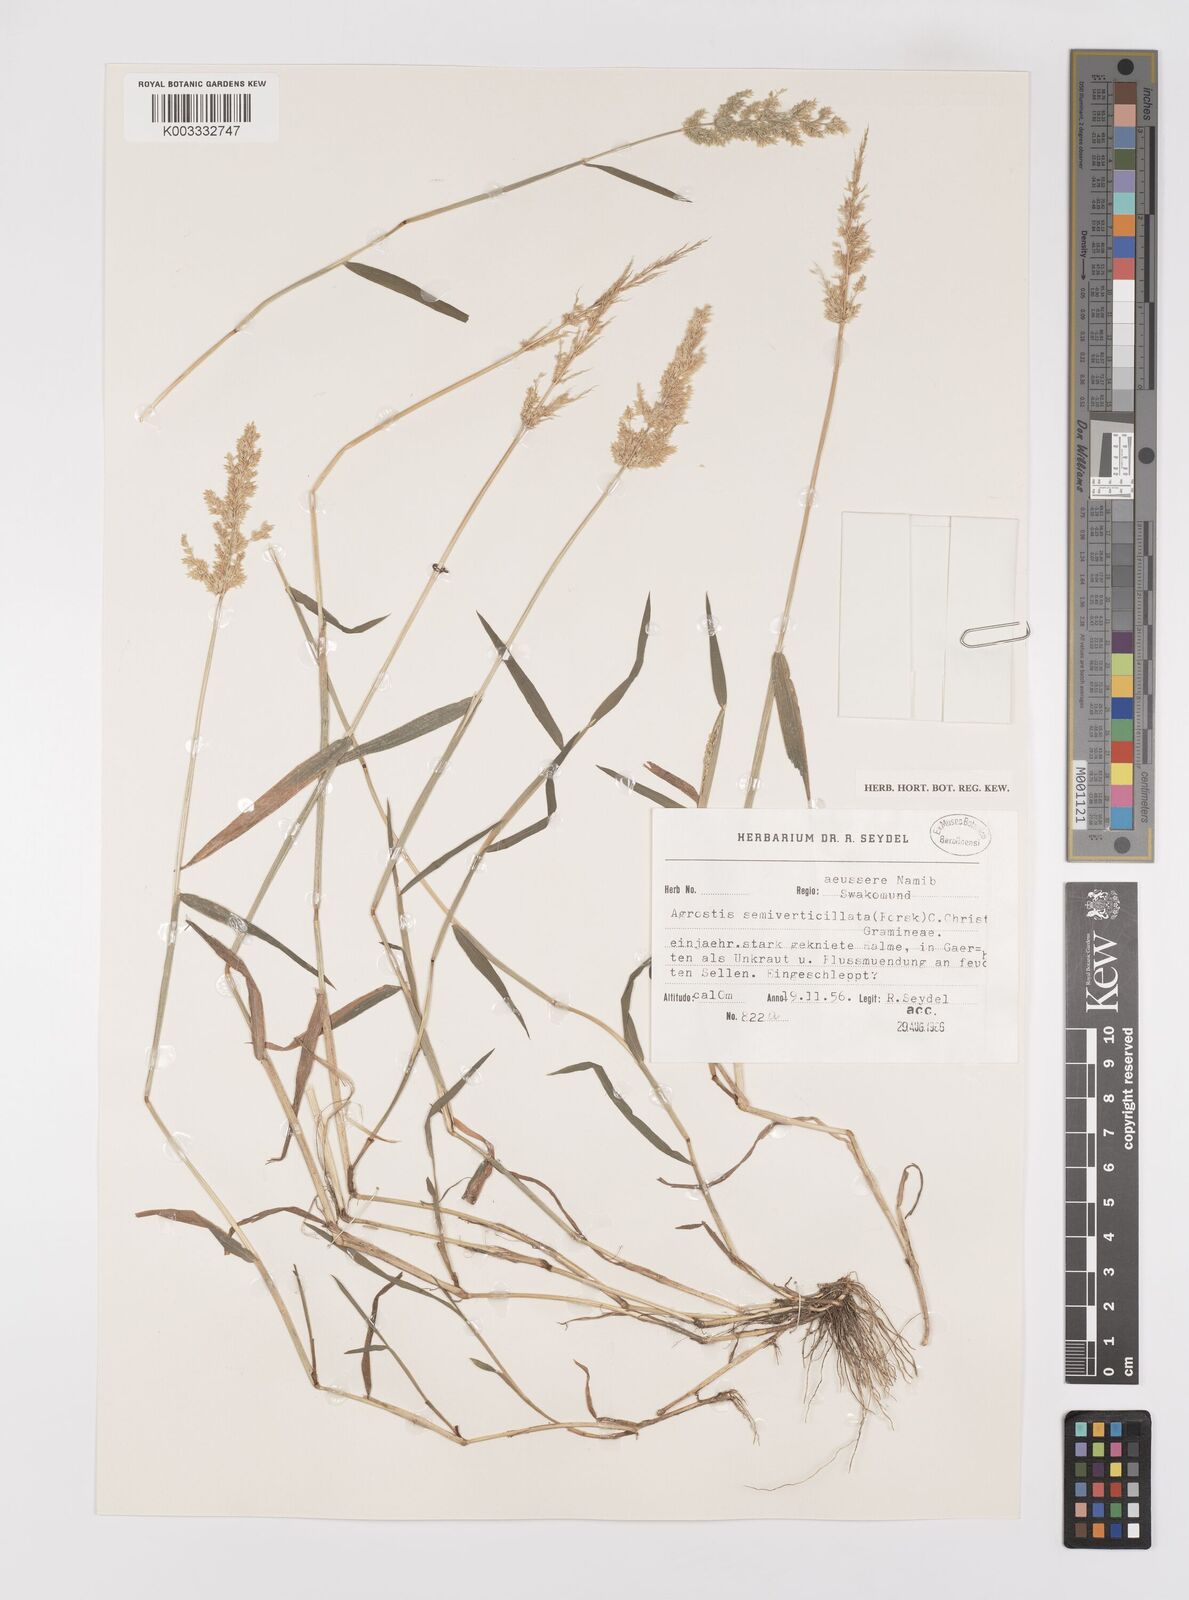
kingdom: Plantae
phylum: Tracheophyta
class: Liliopsida
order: Poales
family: Poaceae
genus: Polypogon
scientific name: Polypogon viridis
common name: Water bent
